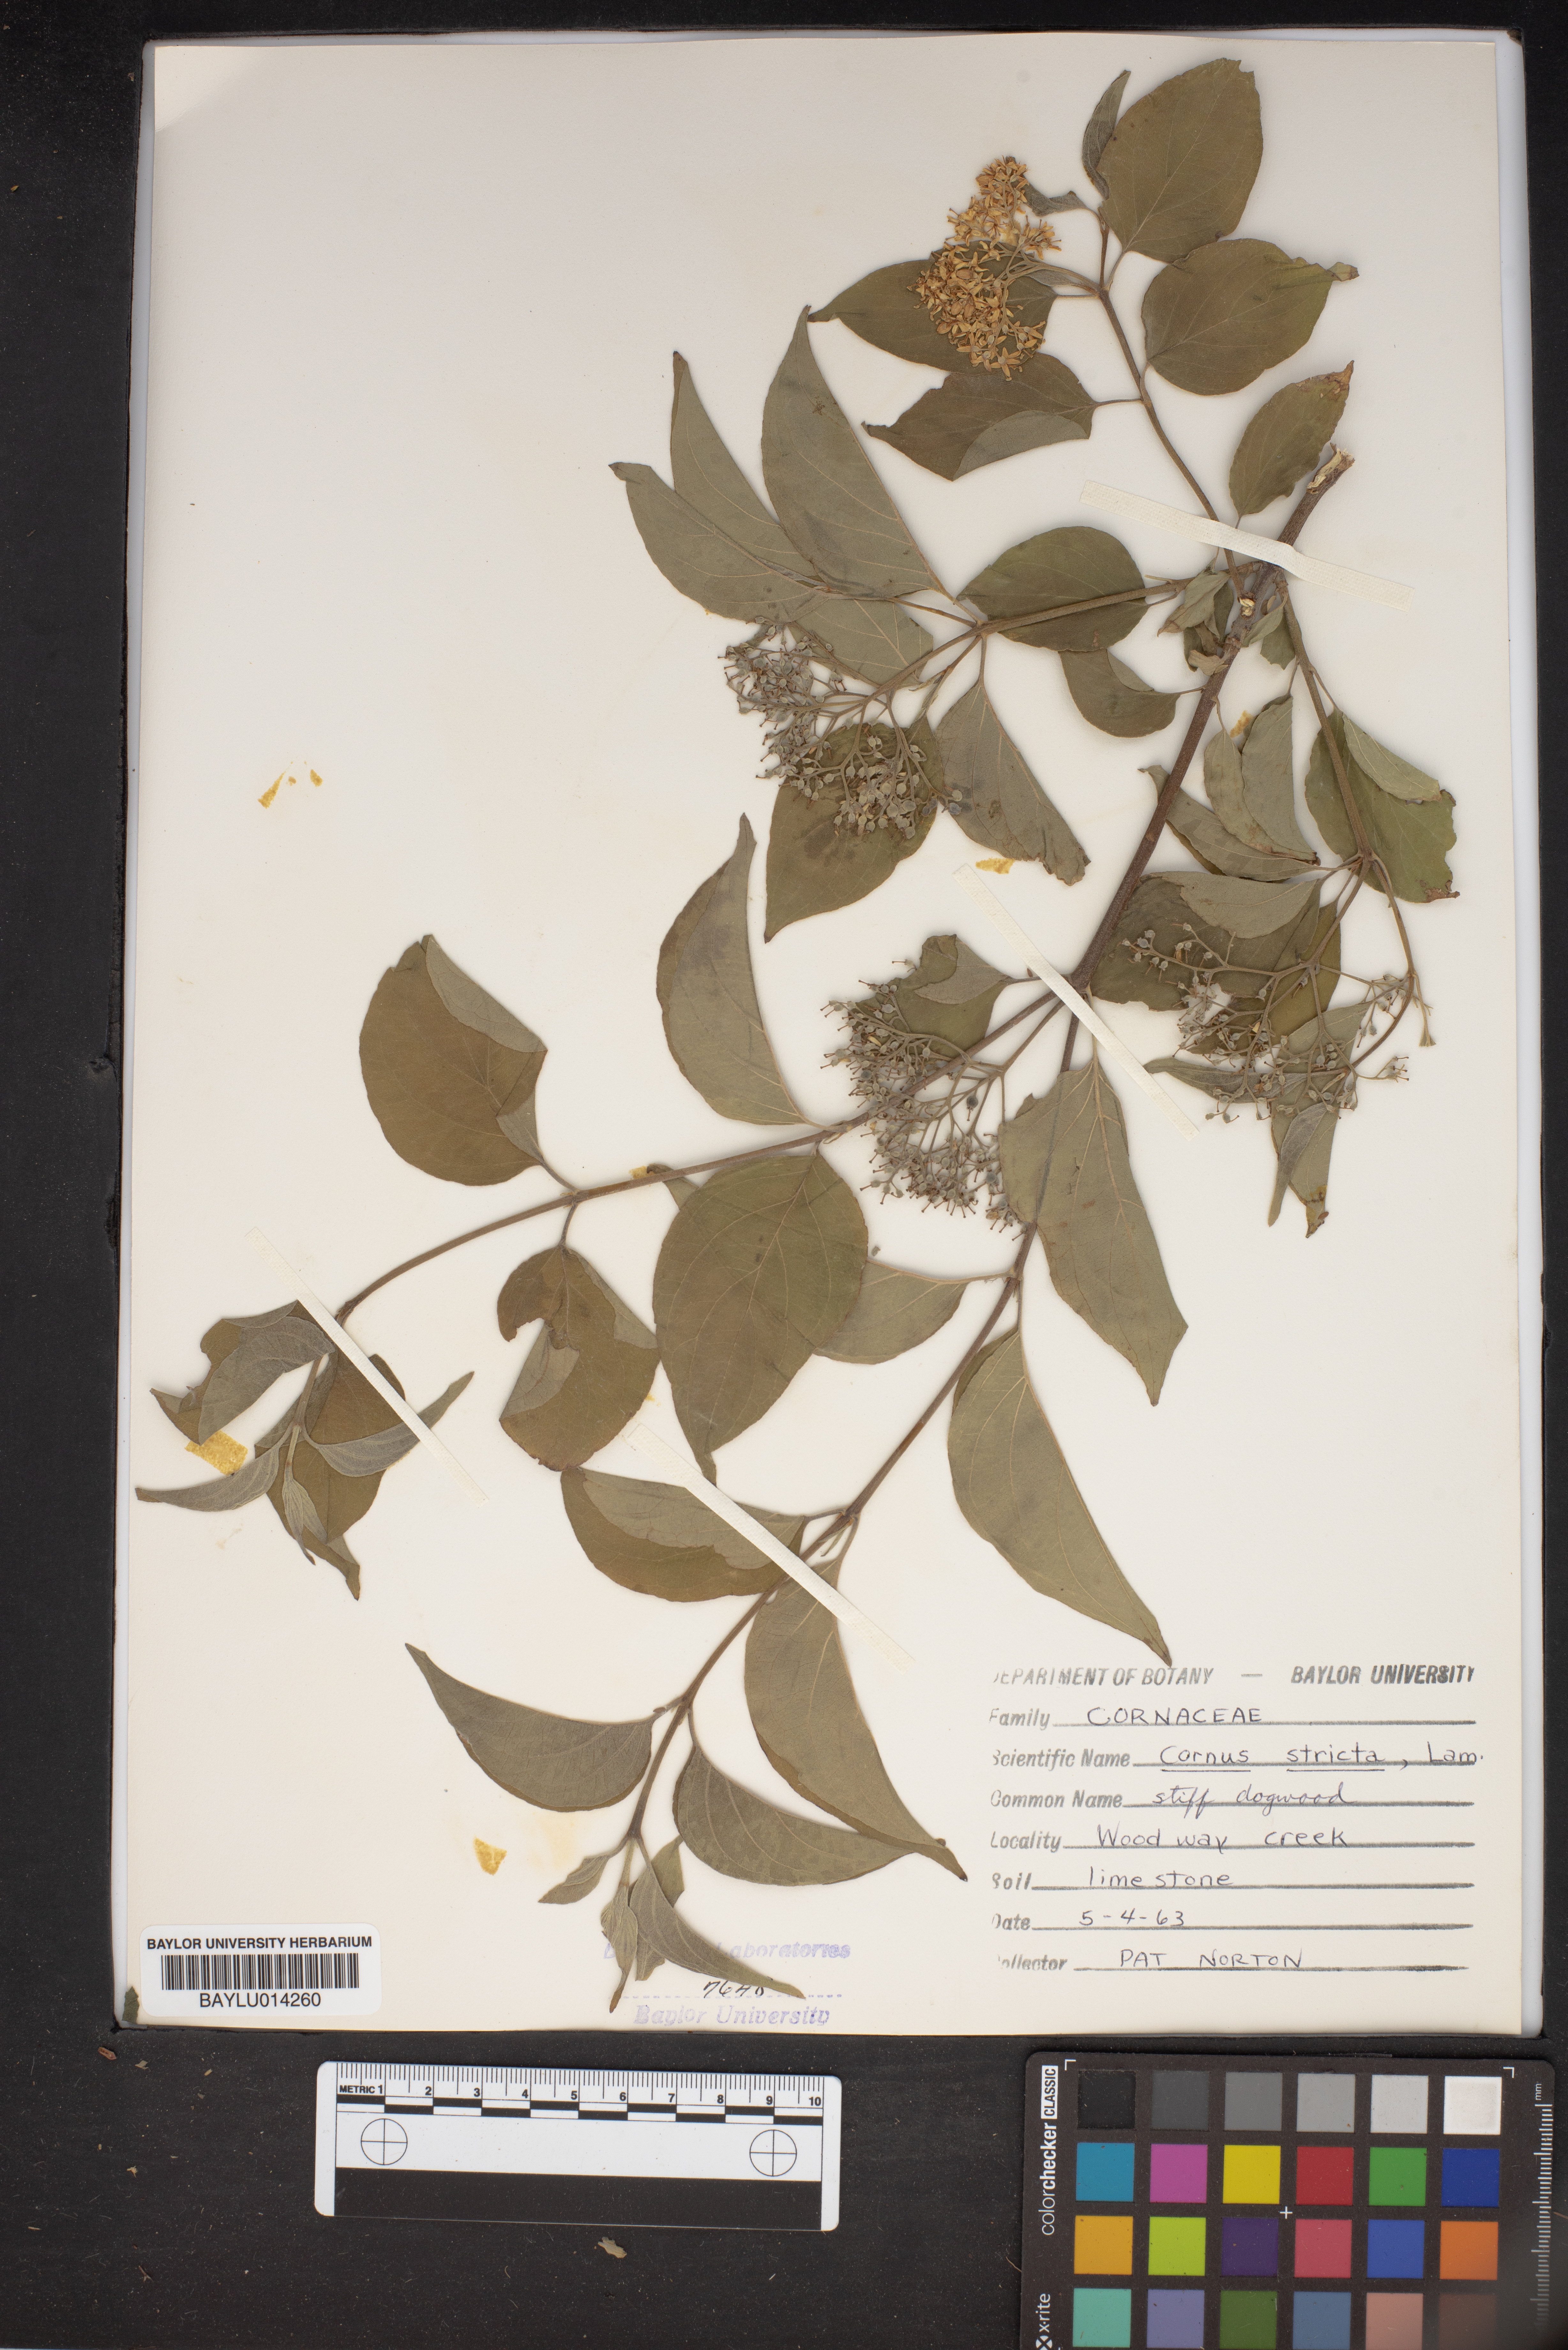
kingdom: Plantae
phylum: Tracheophyta
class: Magnoliopsida
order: Cornales
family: Cornaceae
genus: Cornus
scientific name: Cornus foemina
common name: Swamp dogwood
